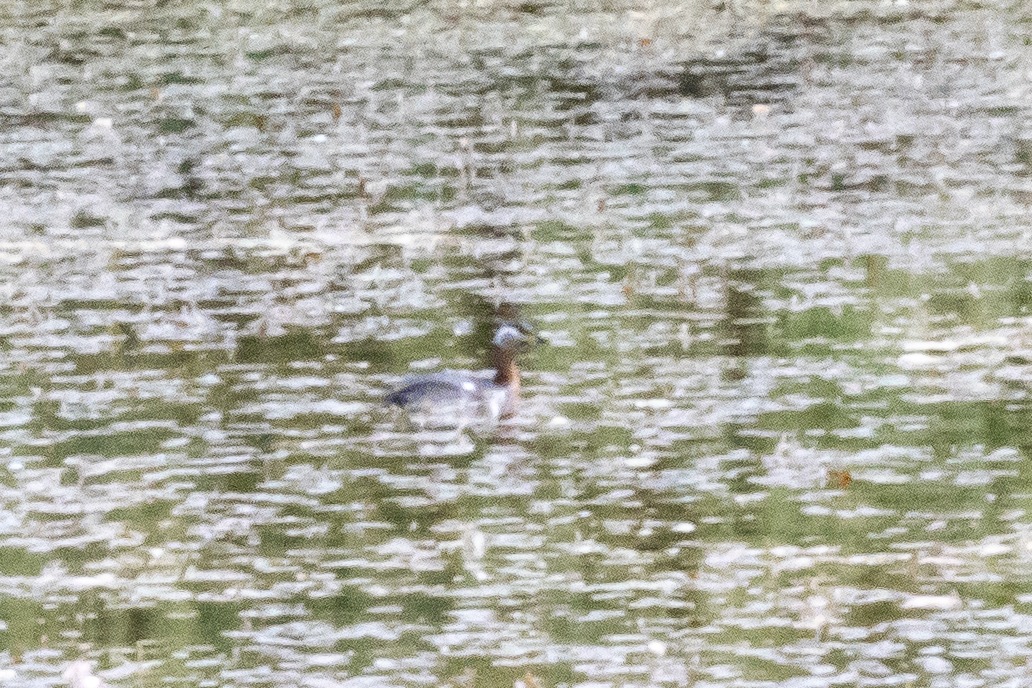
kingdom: Animalia
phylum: Chordata
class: Aves
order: Podicipediformes
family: Podicipedidae
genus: Podiceps
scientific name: Podiceps grisegena
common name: Gråstrubet lappedykker
